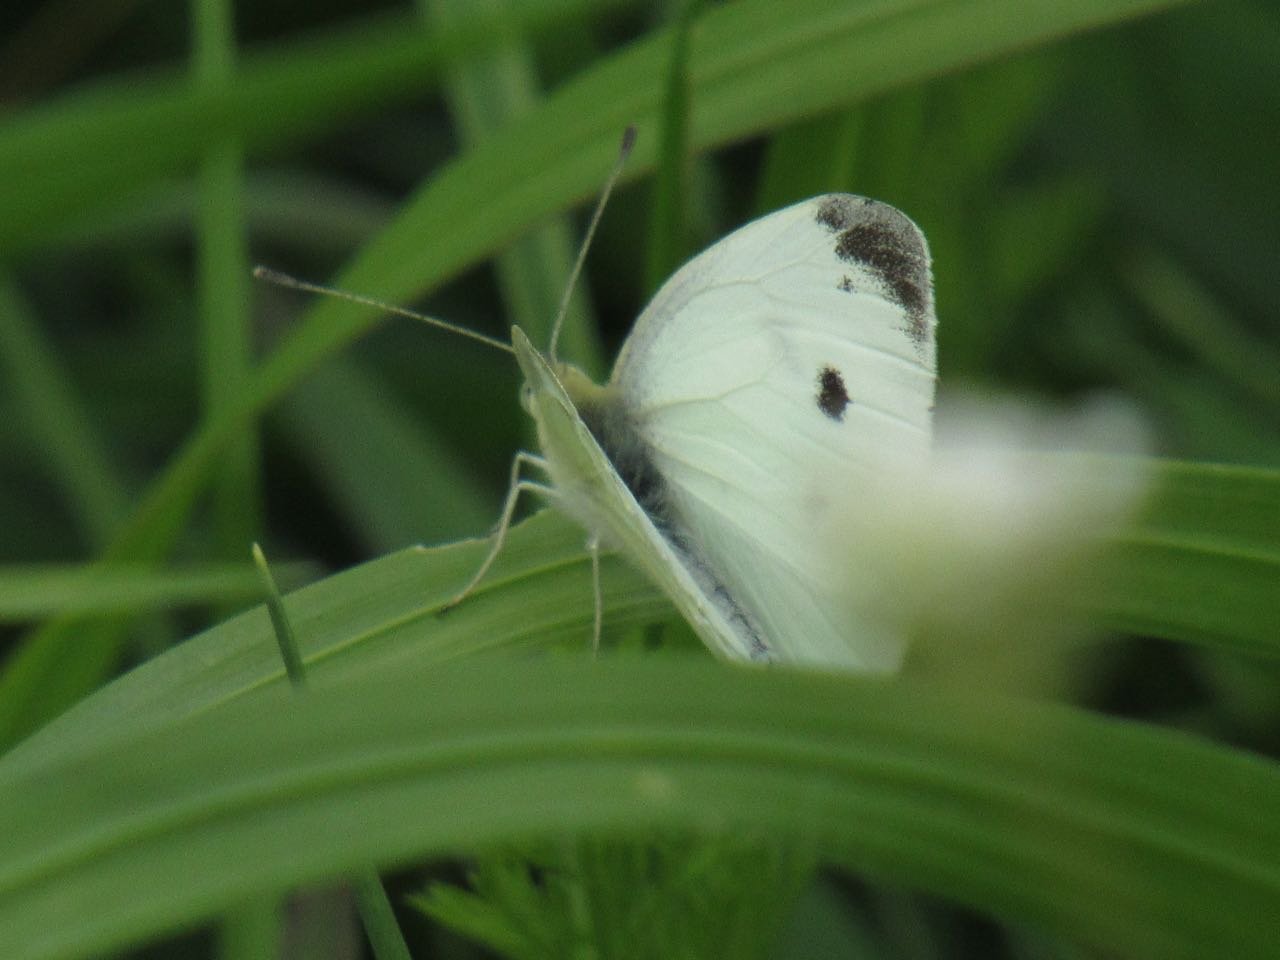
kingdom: Animalia
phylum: Arthropoda
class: Insecta
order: Lepidoptera
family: Pieridae
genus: Pieris
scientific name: Pieris rapae
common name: Cabbage White
